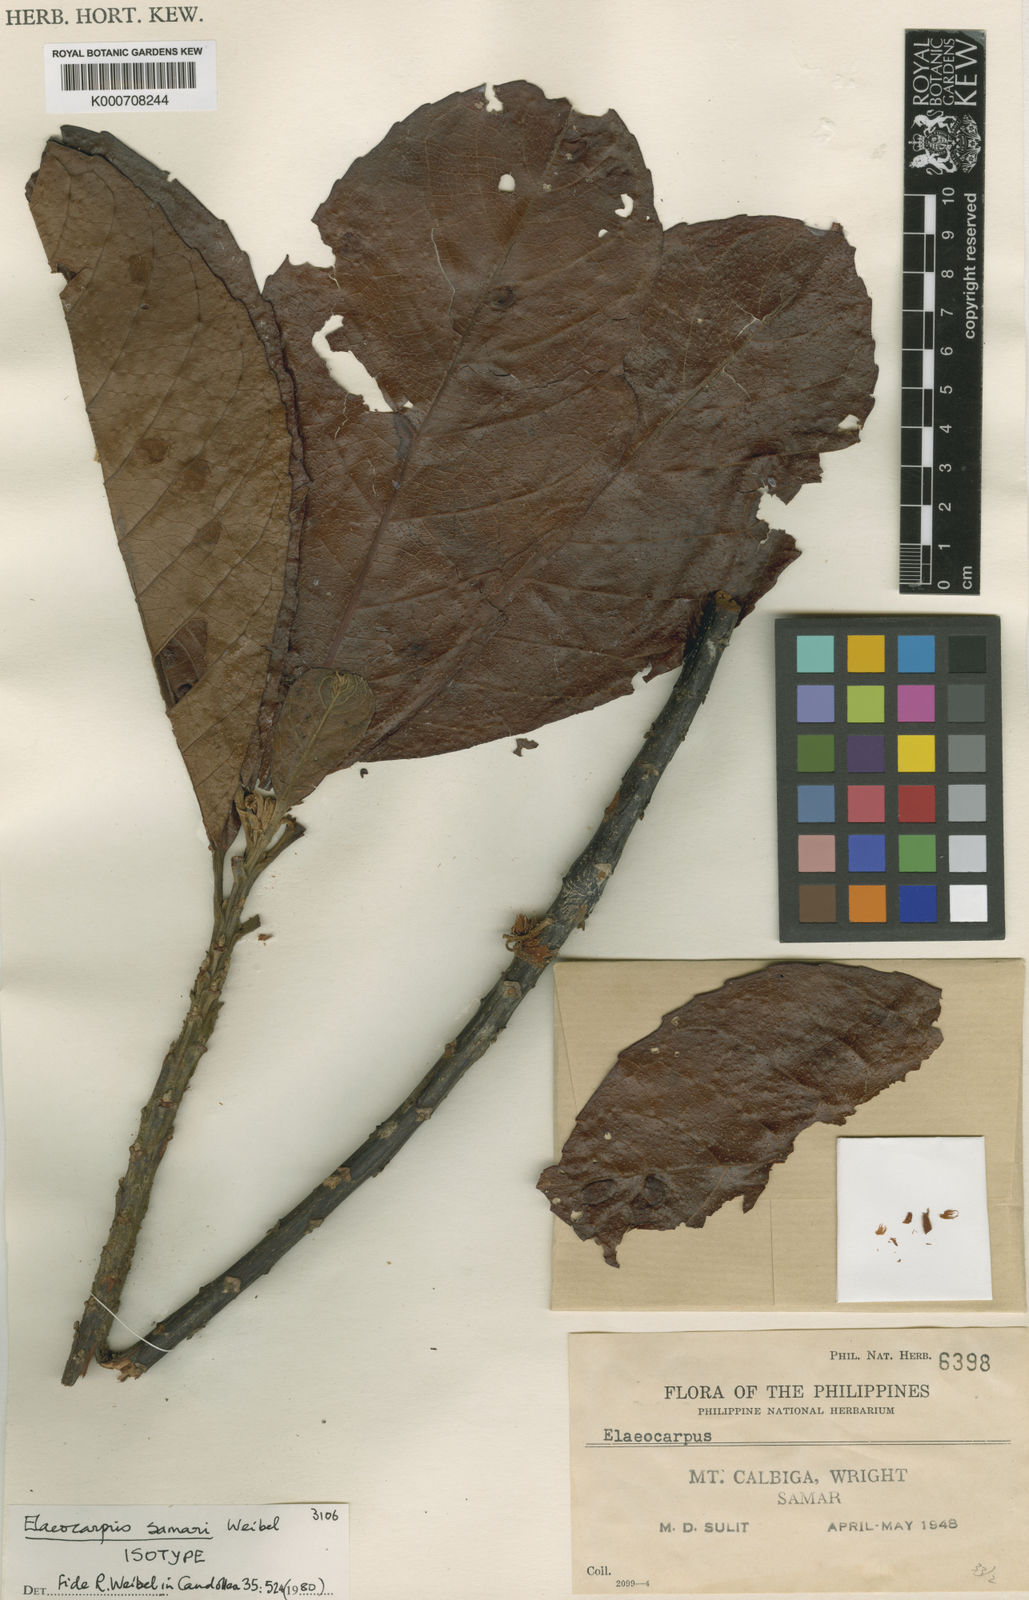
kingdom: Plantae
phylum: Tracheophyta
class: Magnoliopsida
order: Oxalidales
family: Elaeocarpaceae
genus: Elaeocarpus
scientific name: Elaeocarpus samari
